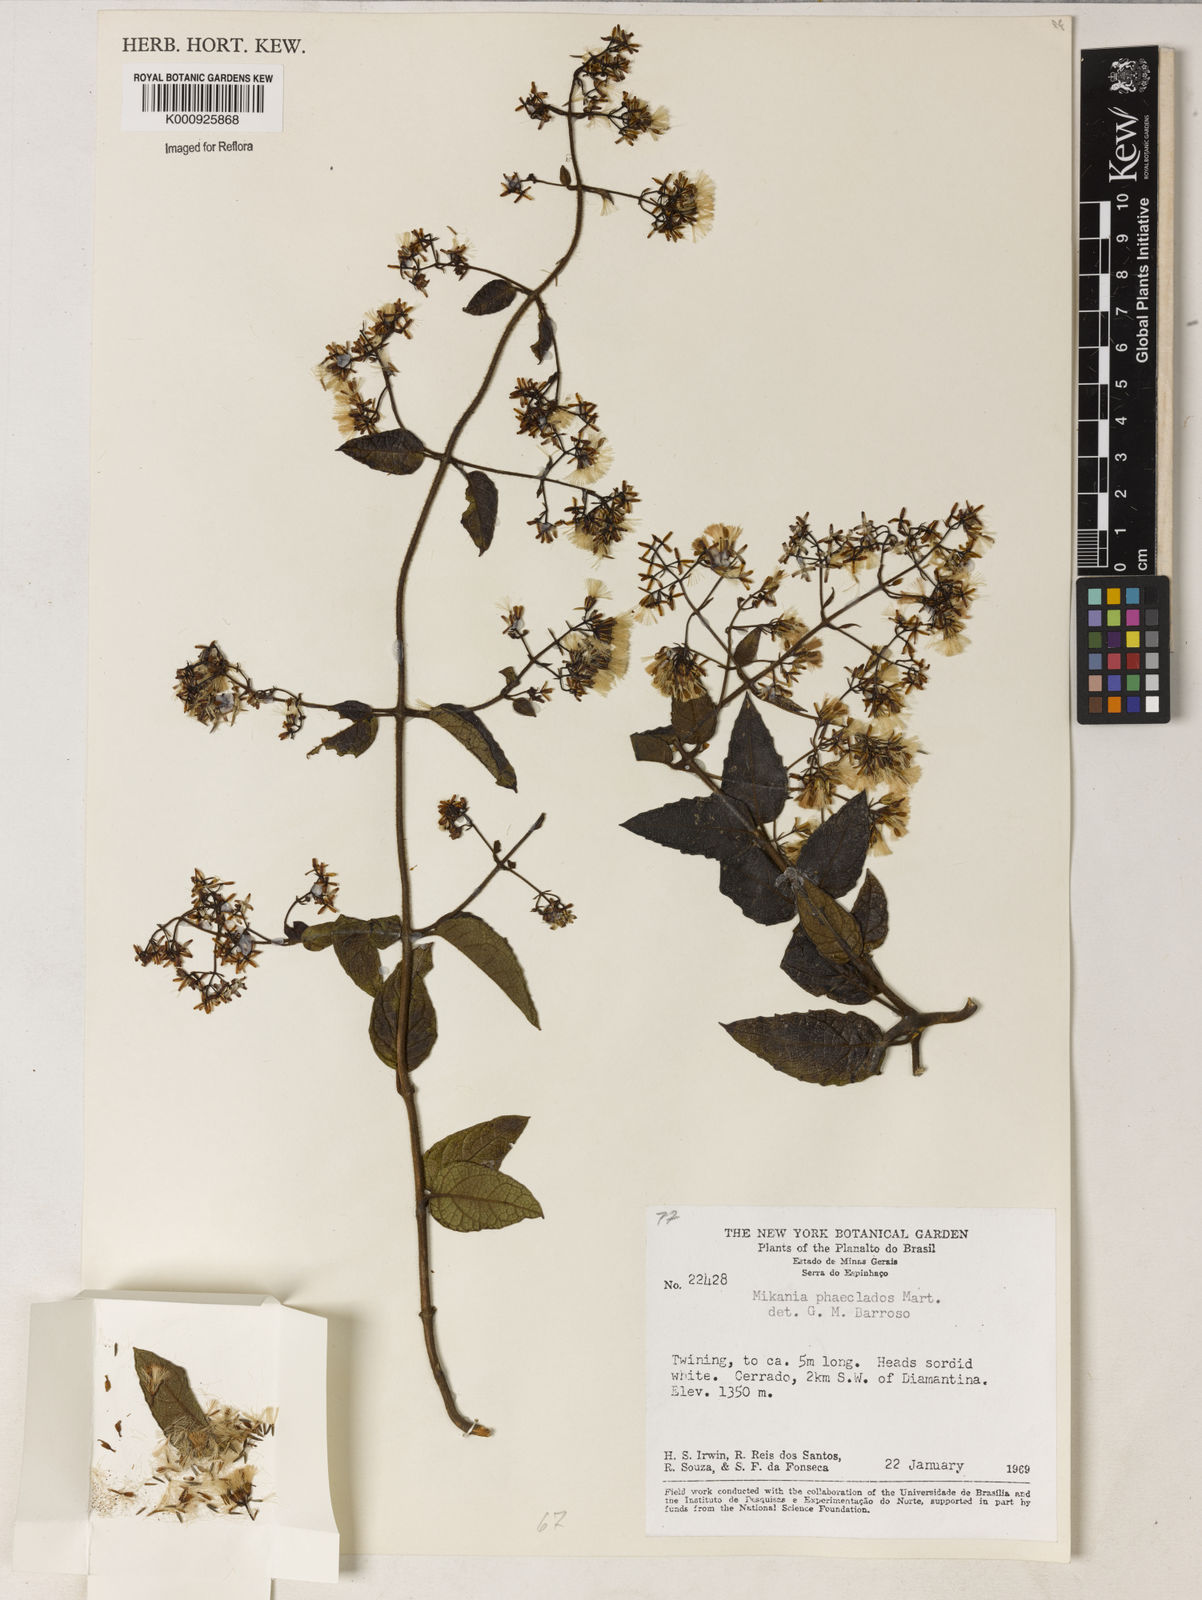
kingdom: Plantae
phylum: Tracheophyta
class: Magnoliopsida
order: Asterales
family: Asteraceae
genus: Mikania
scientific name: Mikania
